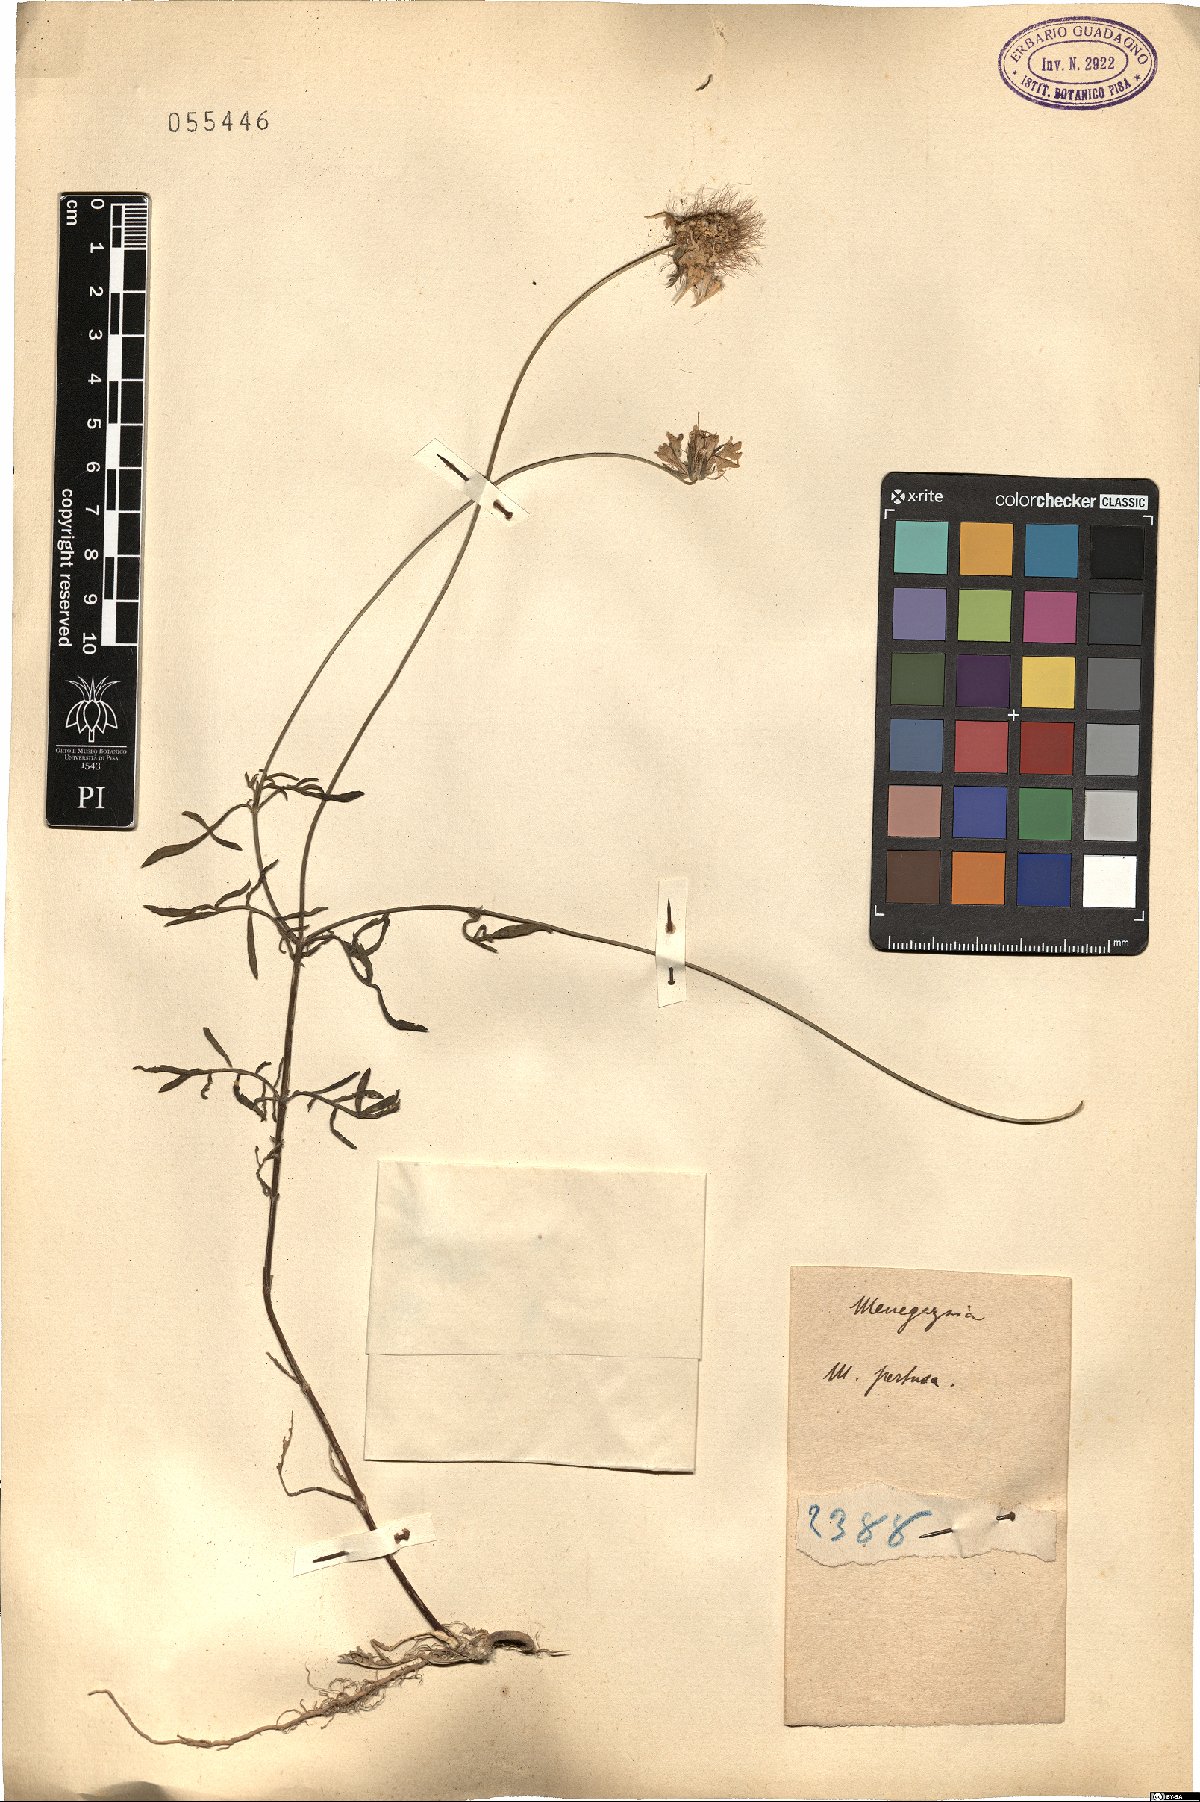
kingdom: Fungi
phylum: Ascomycota
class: Lecanoromycetes
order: Lecanorales
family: Parmeliaceae
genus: Menegazzia
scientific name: Menegazzia terebrata
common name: Magic treeflute lichen
